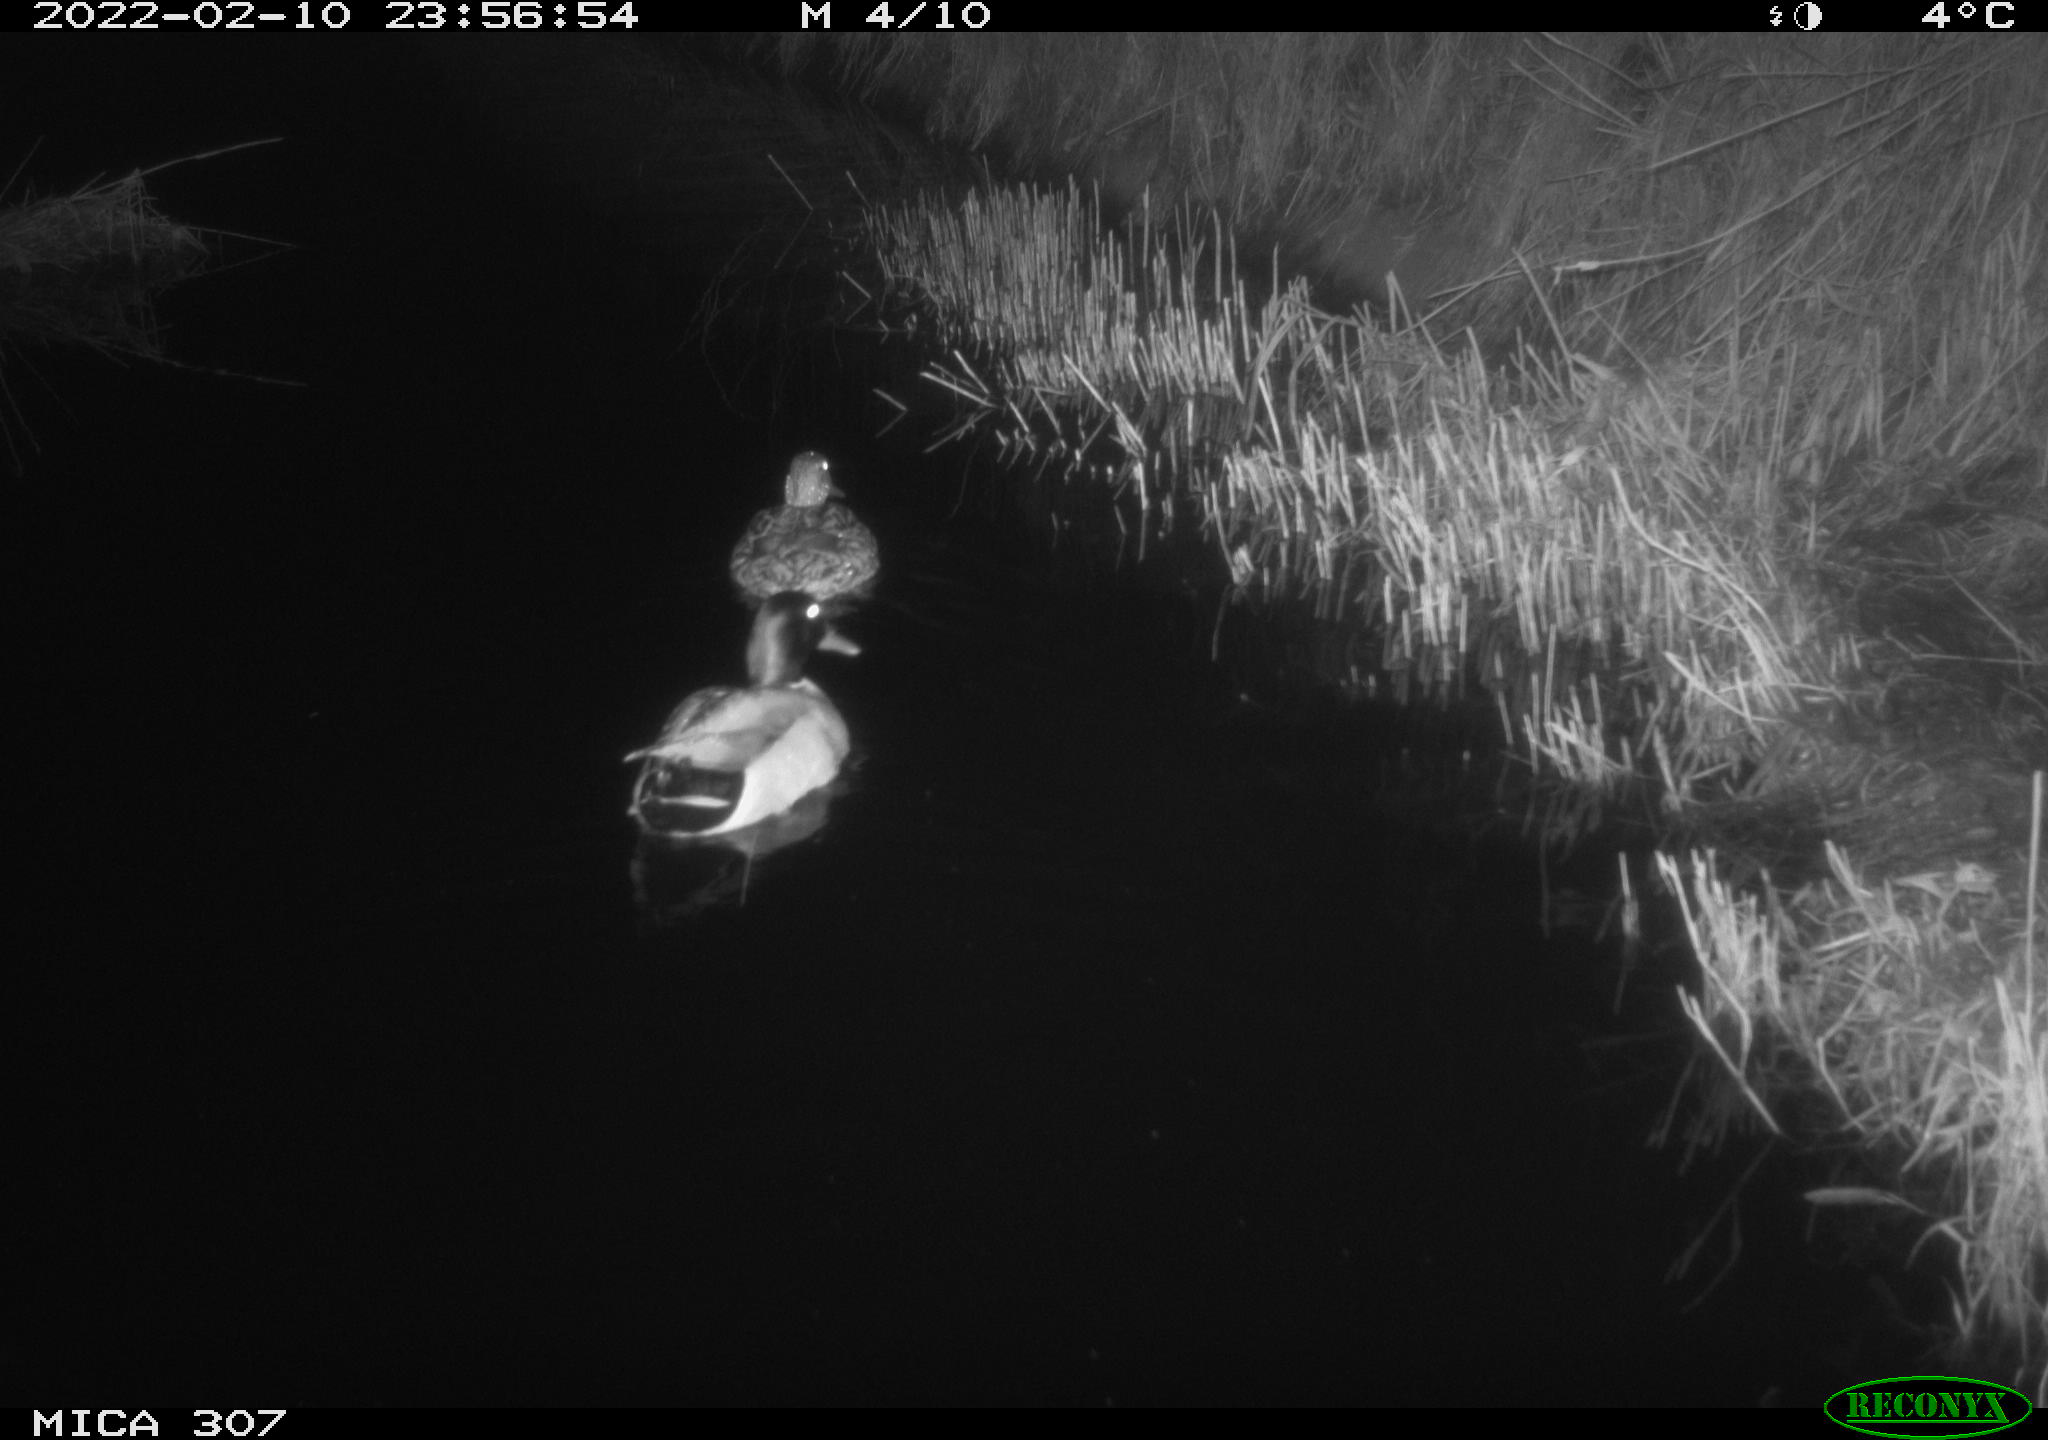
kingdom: Animalia
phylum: Chordata
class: Aves
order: Anseriformes
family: Anatidae
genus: Anas
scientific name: Anas platyrhynchos
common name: Mallard
